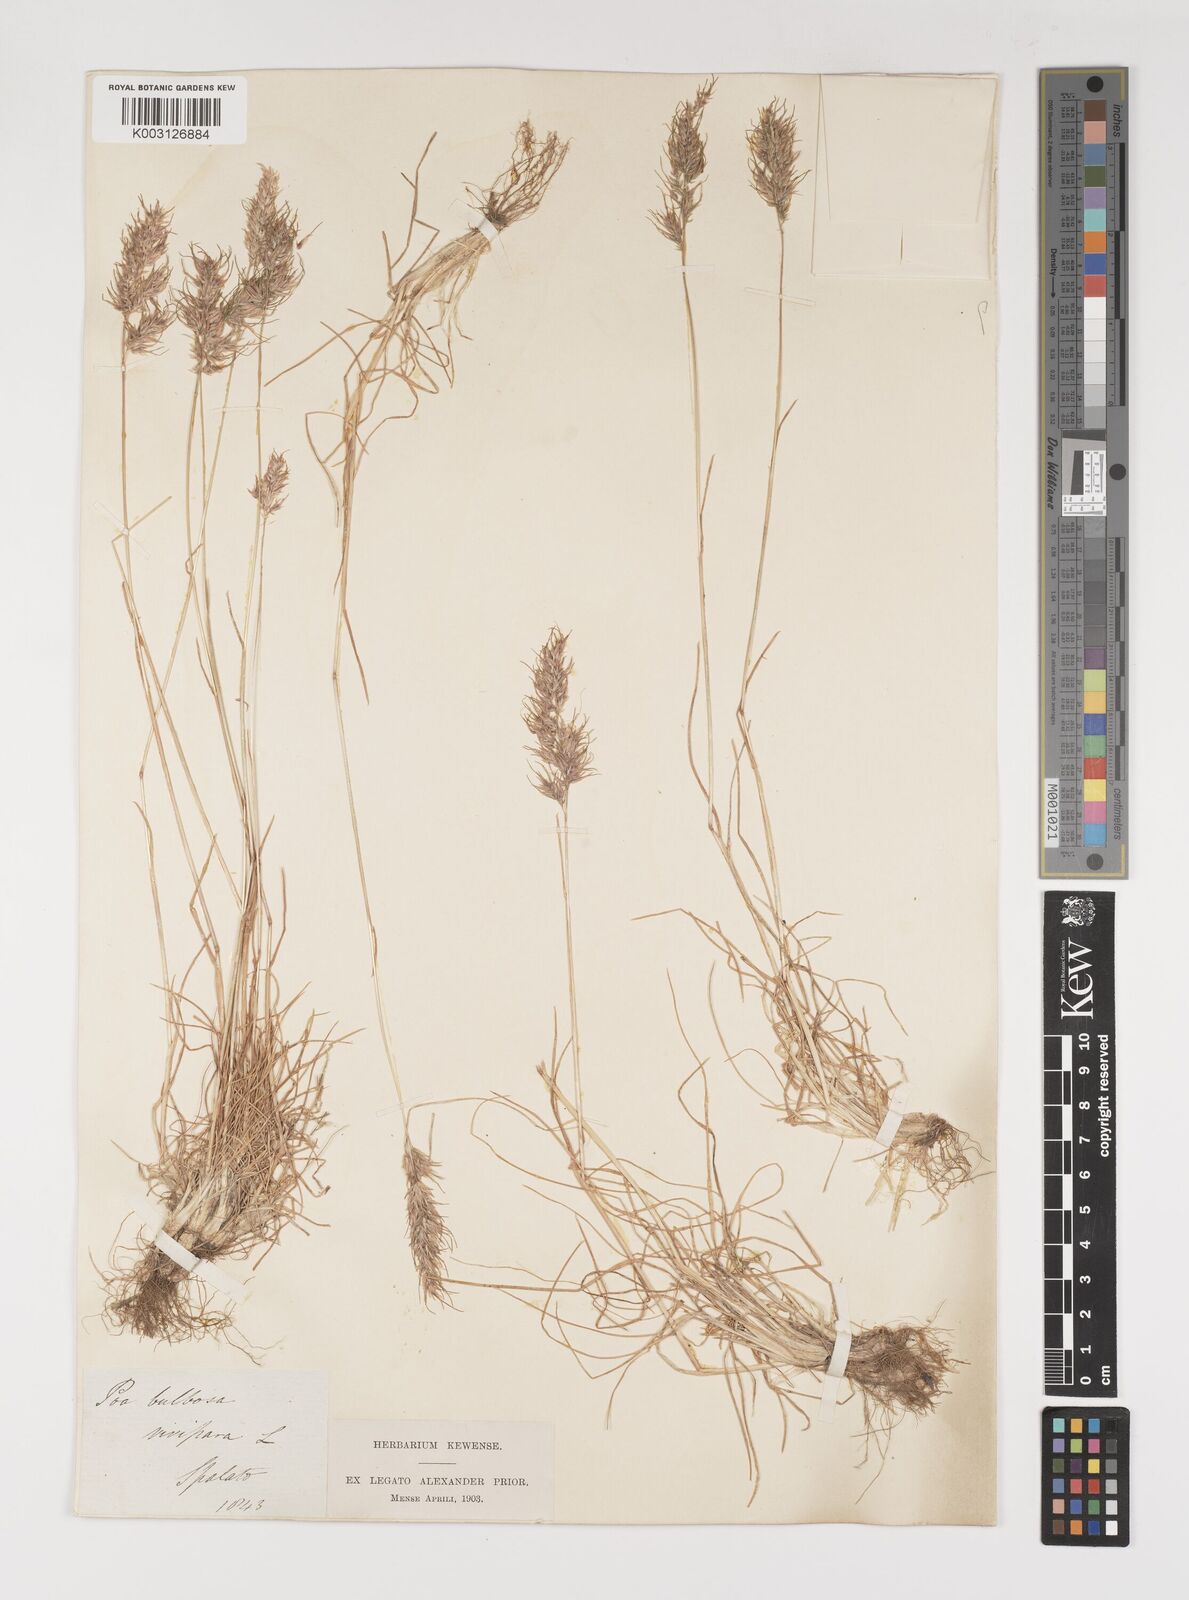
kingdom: Plantae
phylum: Tracheophyta
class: Liliopsida
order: Poales
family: Poaceae
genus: Poa
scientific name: Poa bulbosa
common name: Bulbous bluegrass
